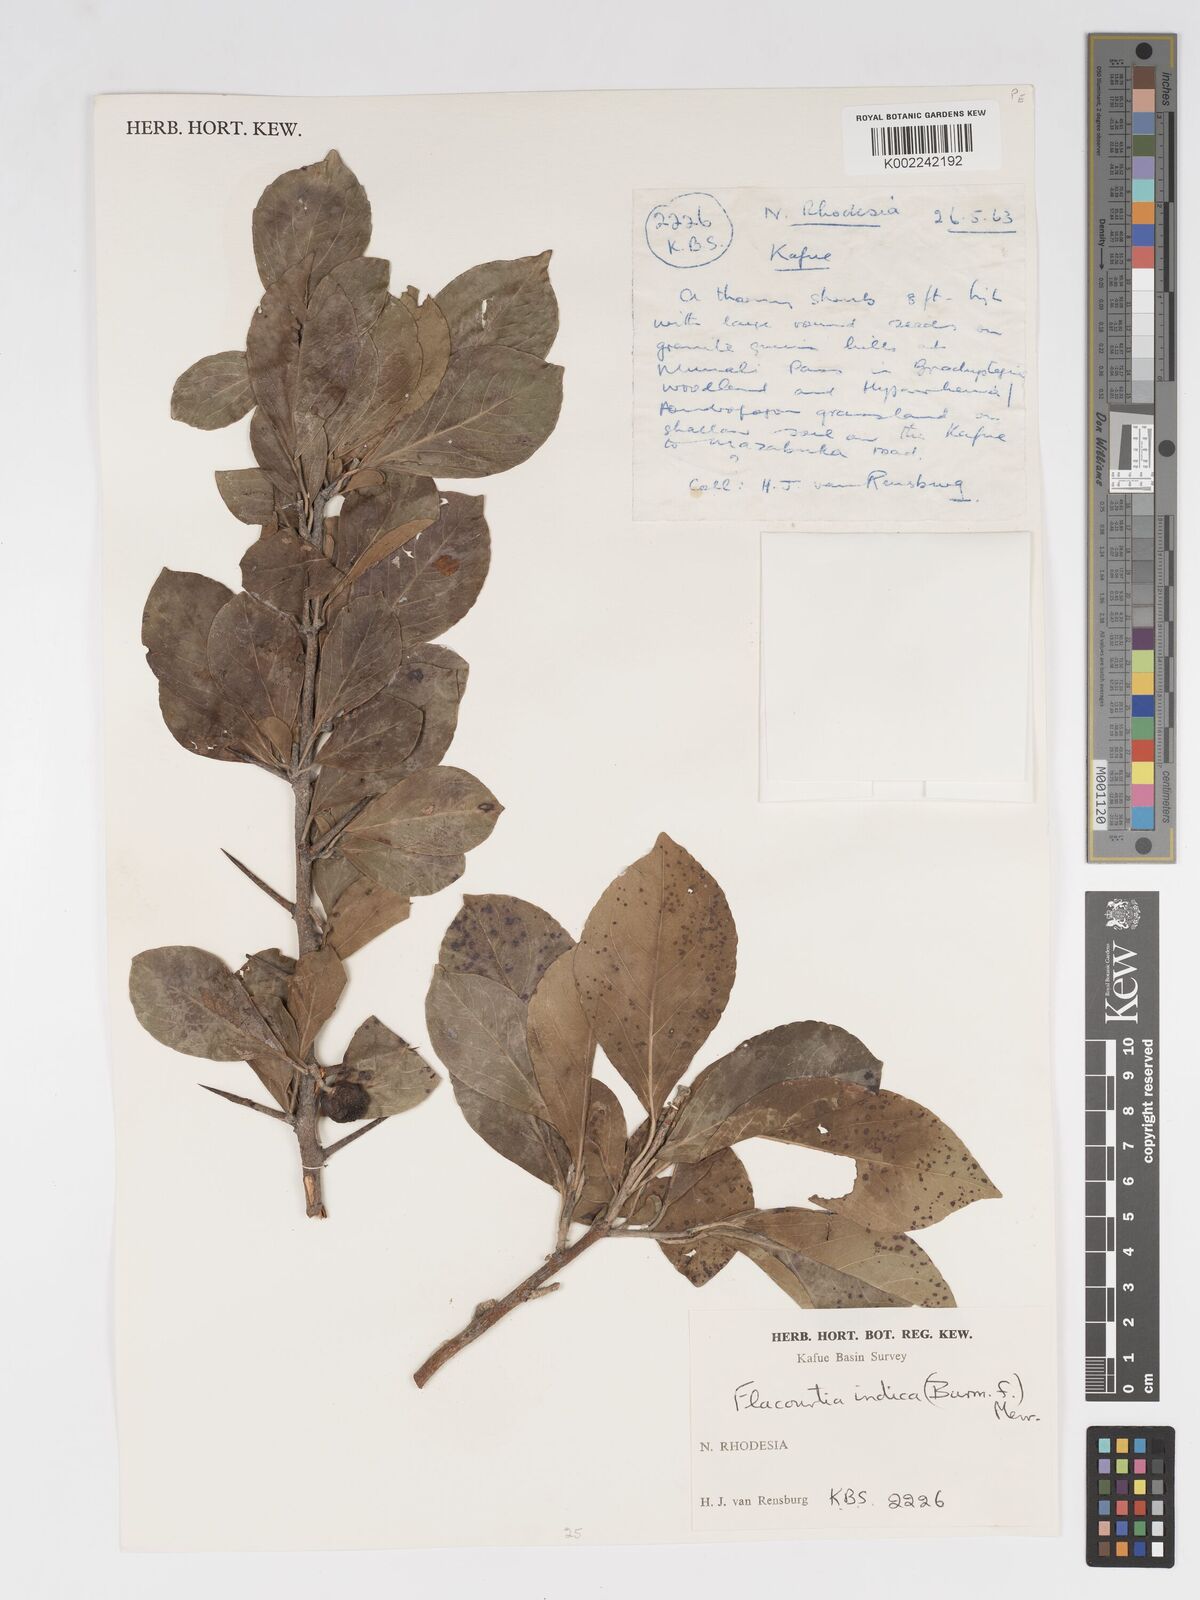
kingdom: Plantae
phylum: Tracheophyta
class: Magnoliopsida
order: Malpighiales
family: Salicaceae
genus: Flacourtia
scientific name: Flacourtia indica
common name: Governor's plum
